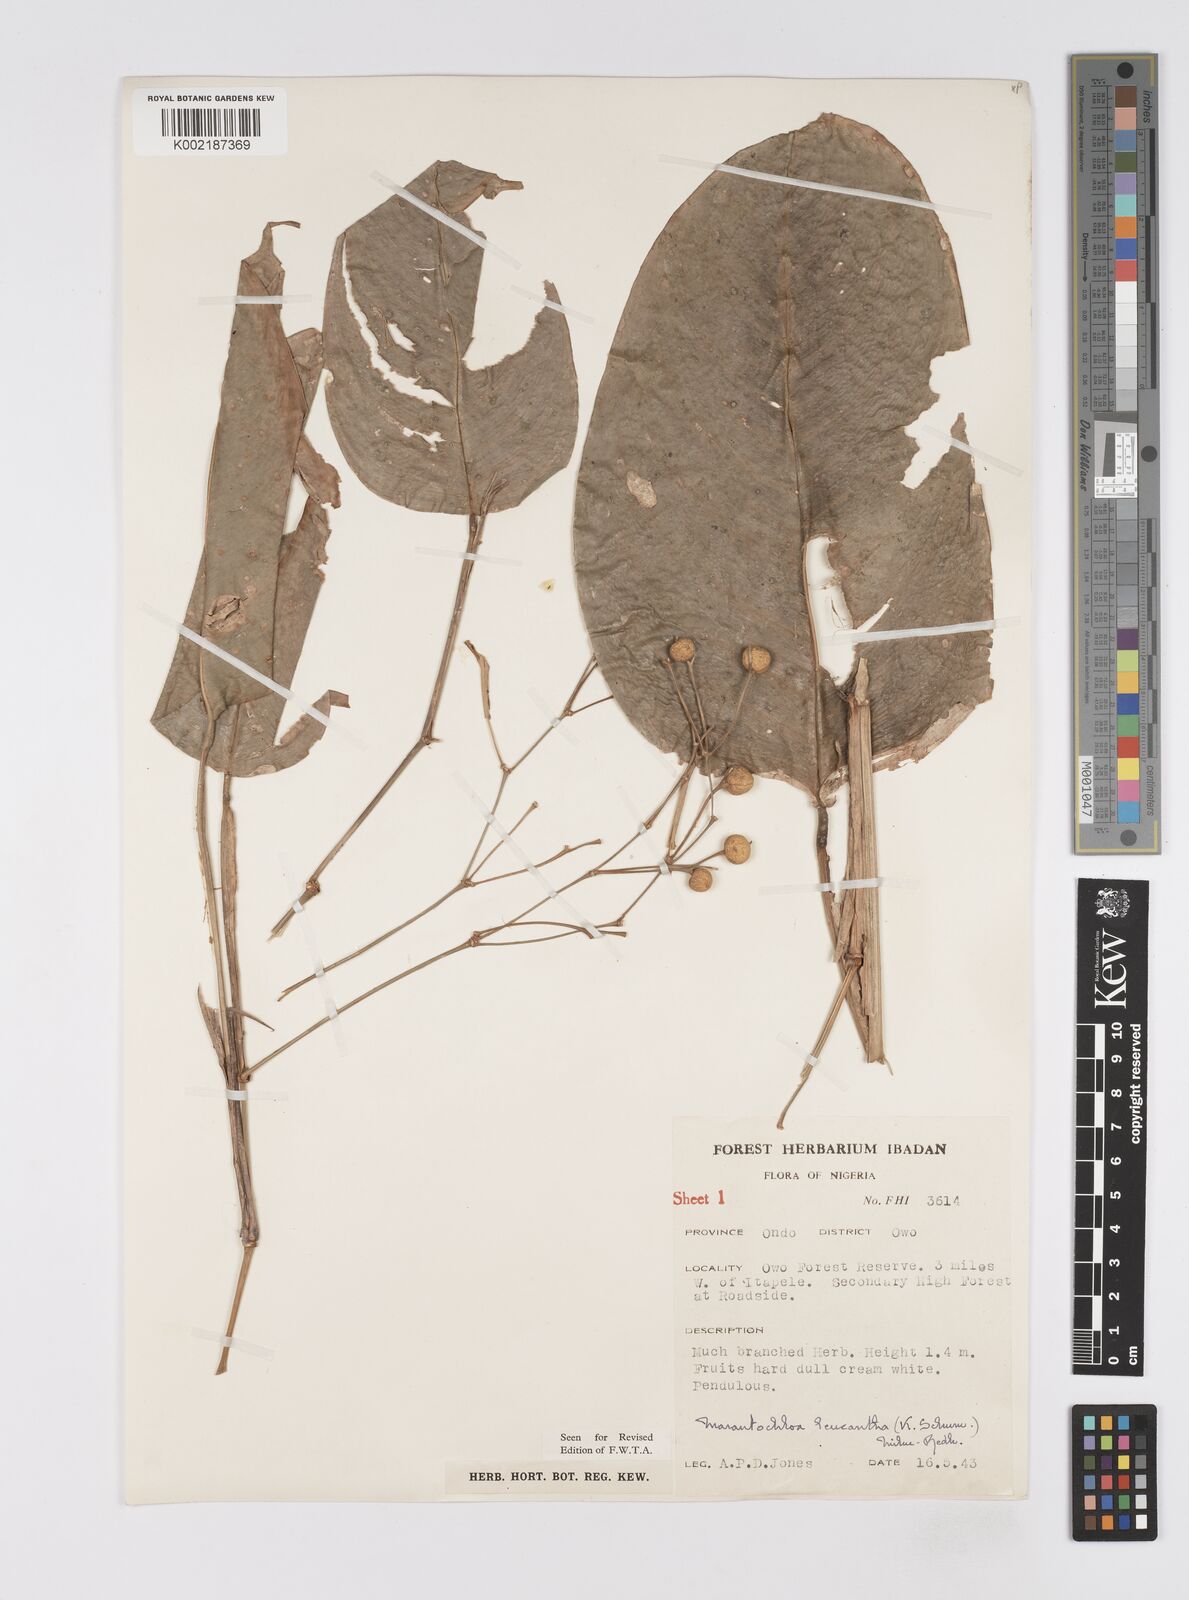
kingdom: Plantae
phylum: Tracheophyta
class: Liliopsida
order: Zingiberales
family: Marantaceae
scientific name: Marantaceae
